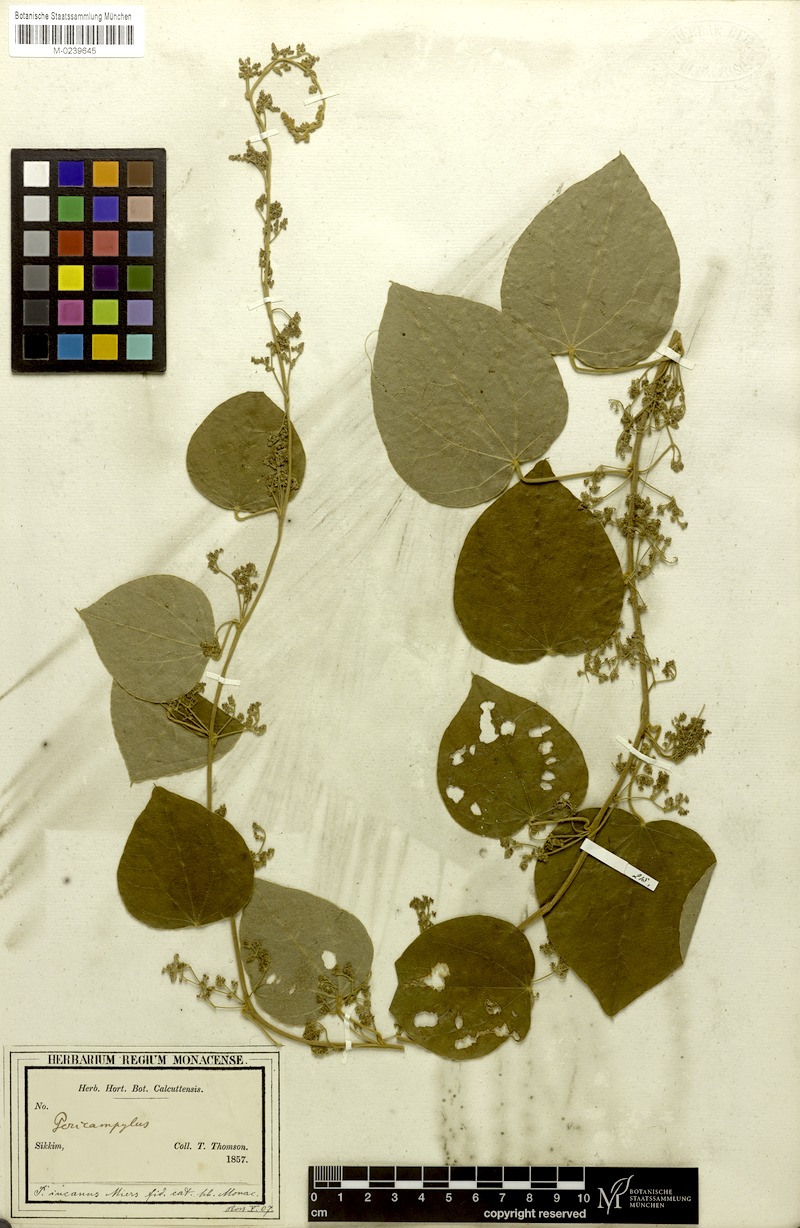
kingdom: Plantae
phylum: Tracheophyta
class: Magnoliopsida
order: Ranunculales
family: Menispermaceae
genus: Pericampylus
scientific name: Pericampylus glaucus
